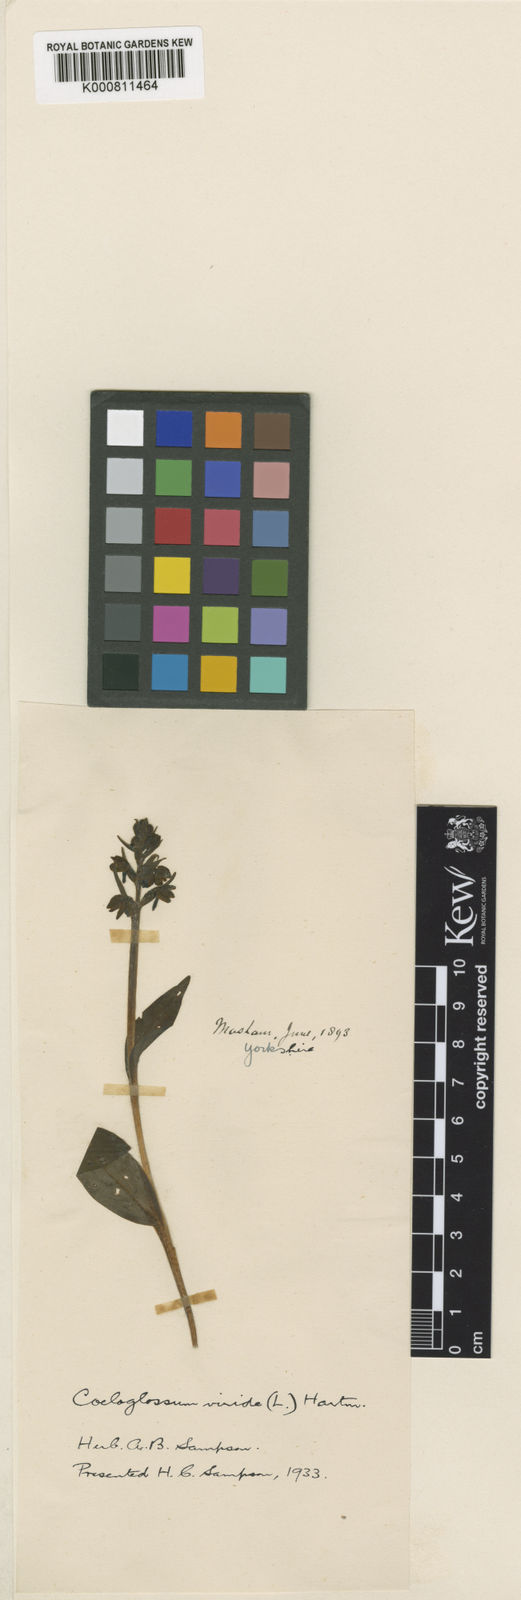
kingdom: Plantae
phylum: Tracheophyta
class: Liliopsida
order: Asparagales
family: Orchidaceae
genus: Dactylorhiza
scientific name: Dactylorhiza viridis
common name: Longbract frog orchid
